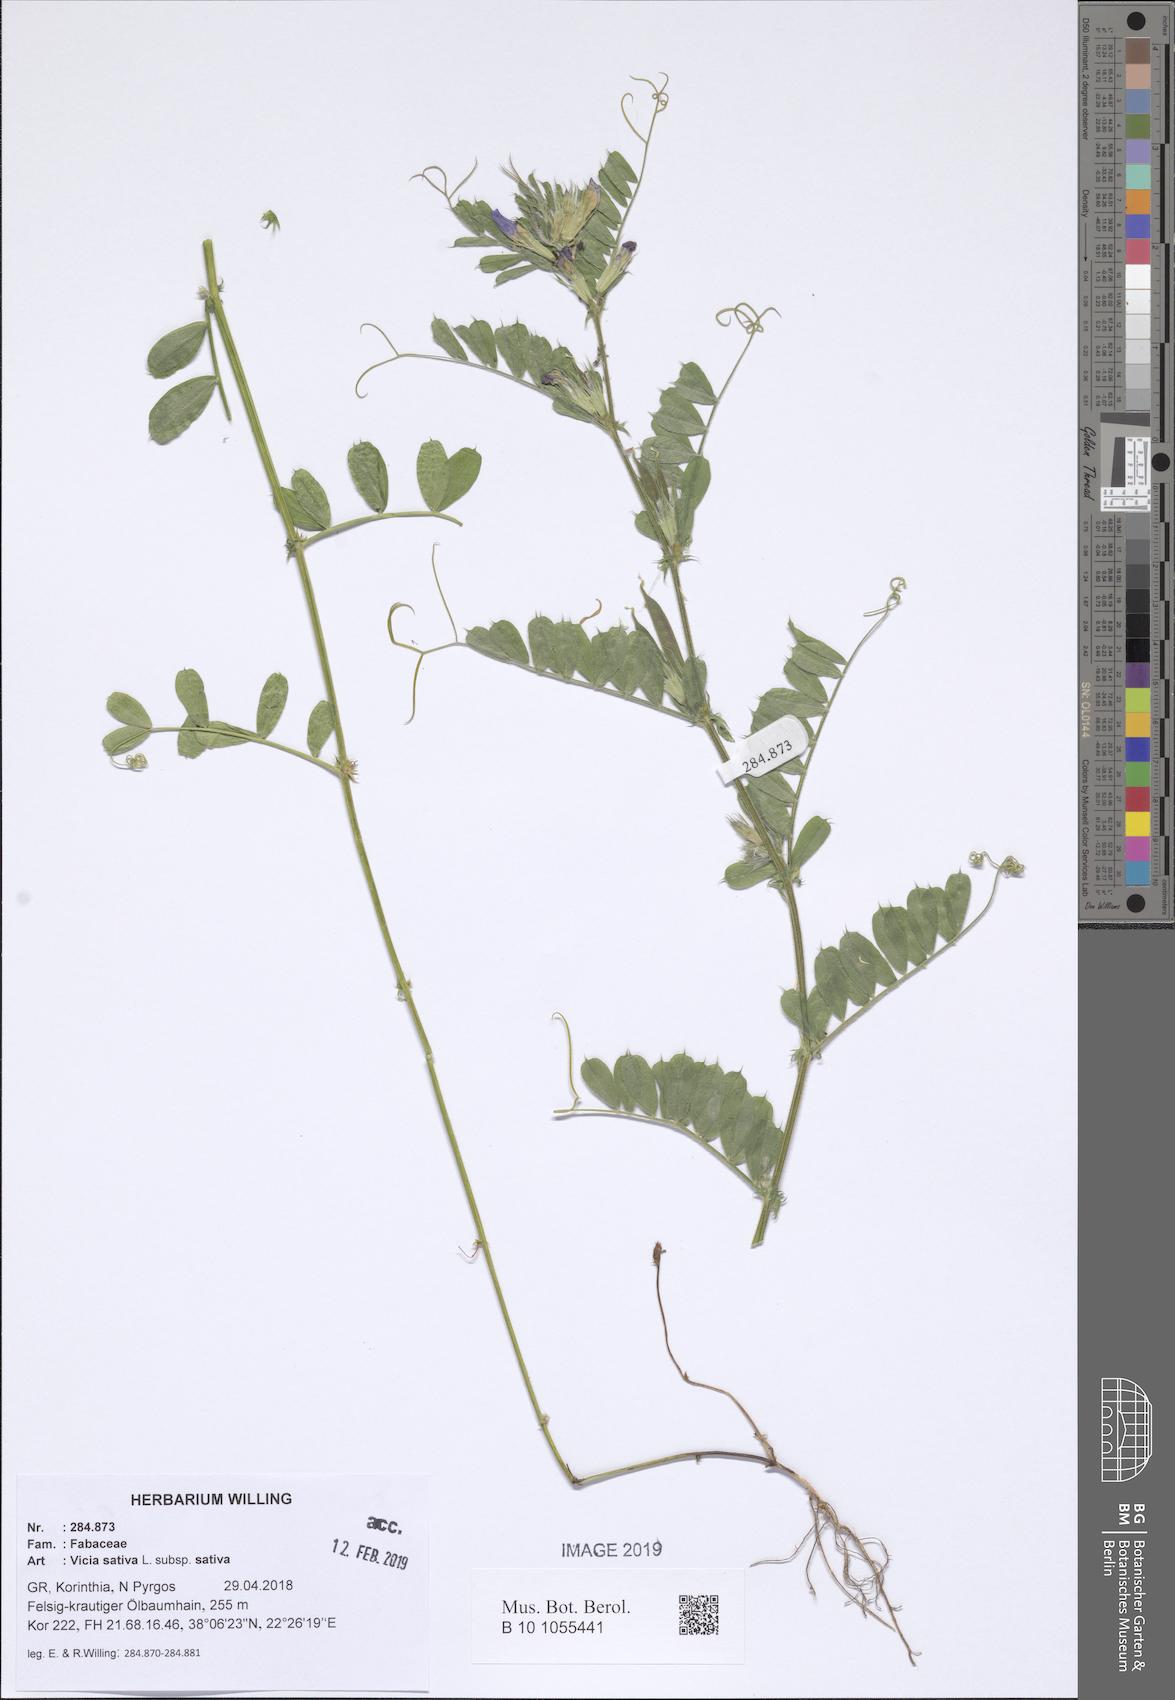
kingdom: Plantae
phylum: Tracheophyta
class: Magnoliopsida
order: Fabales
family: Fabaceae
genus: Vicia
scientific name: Vicia sativa
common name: Garden vetch
